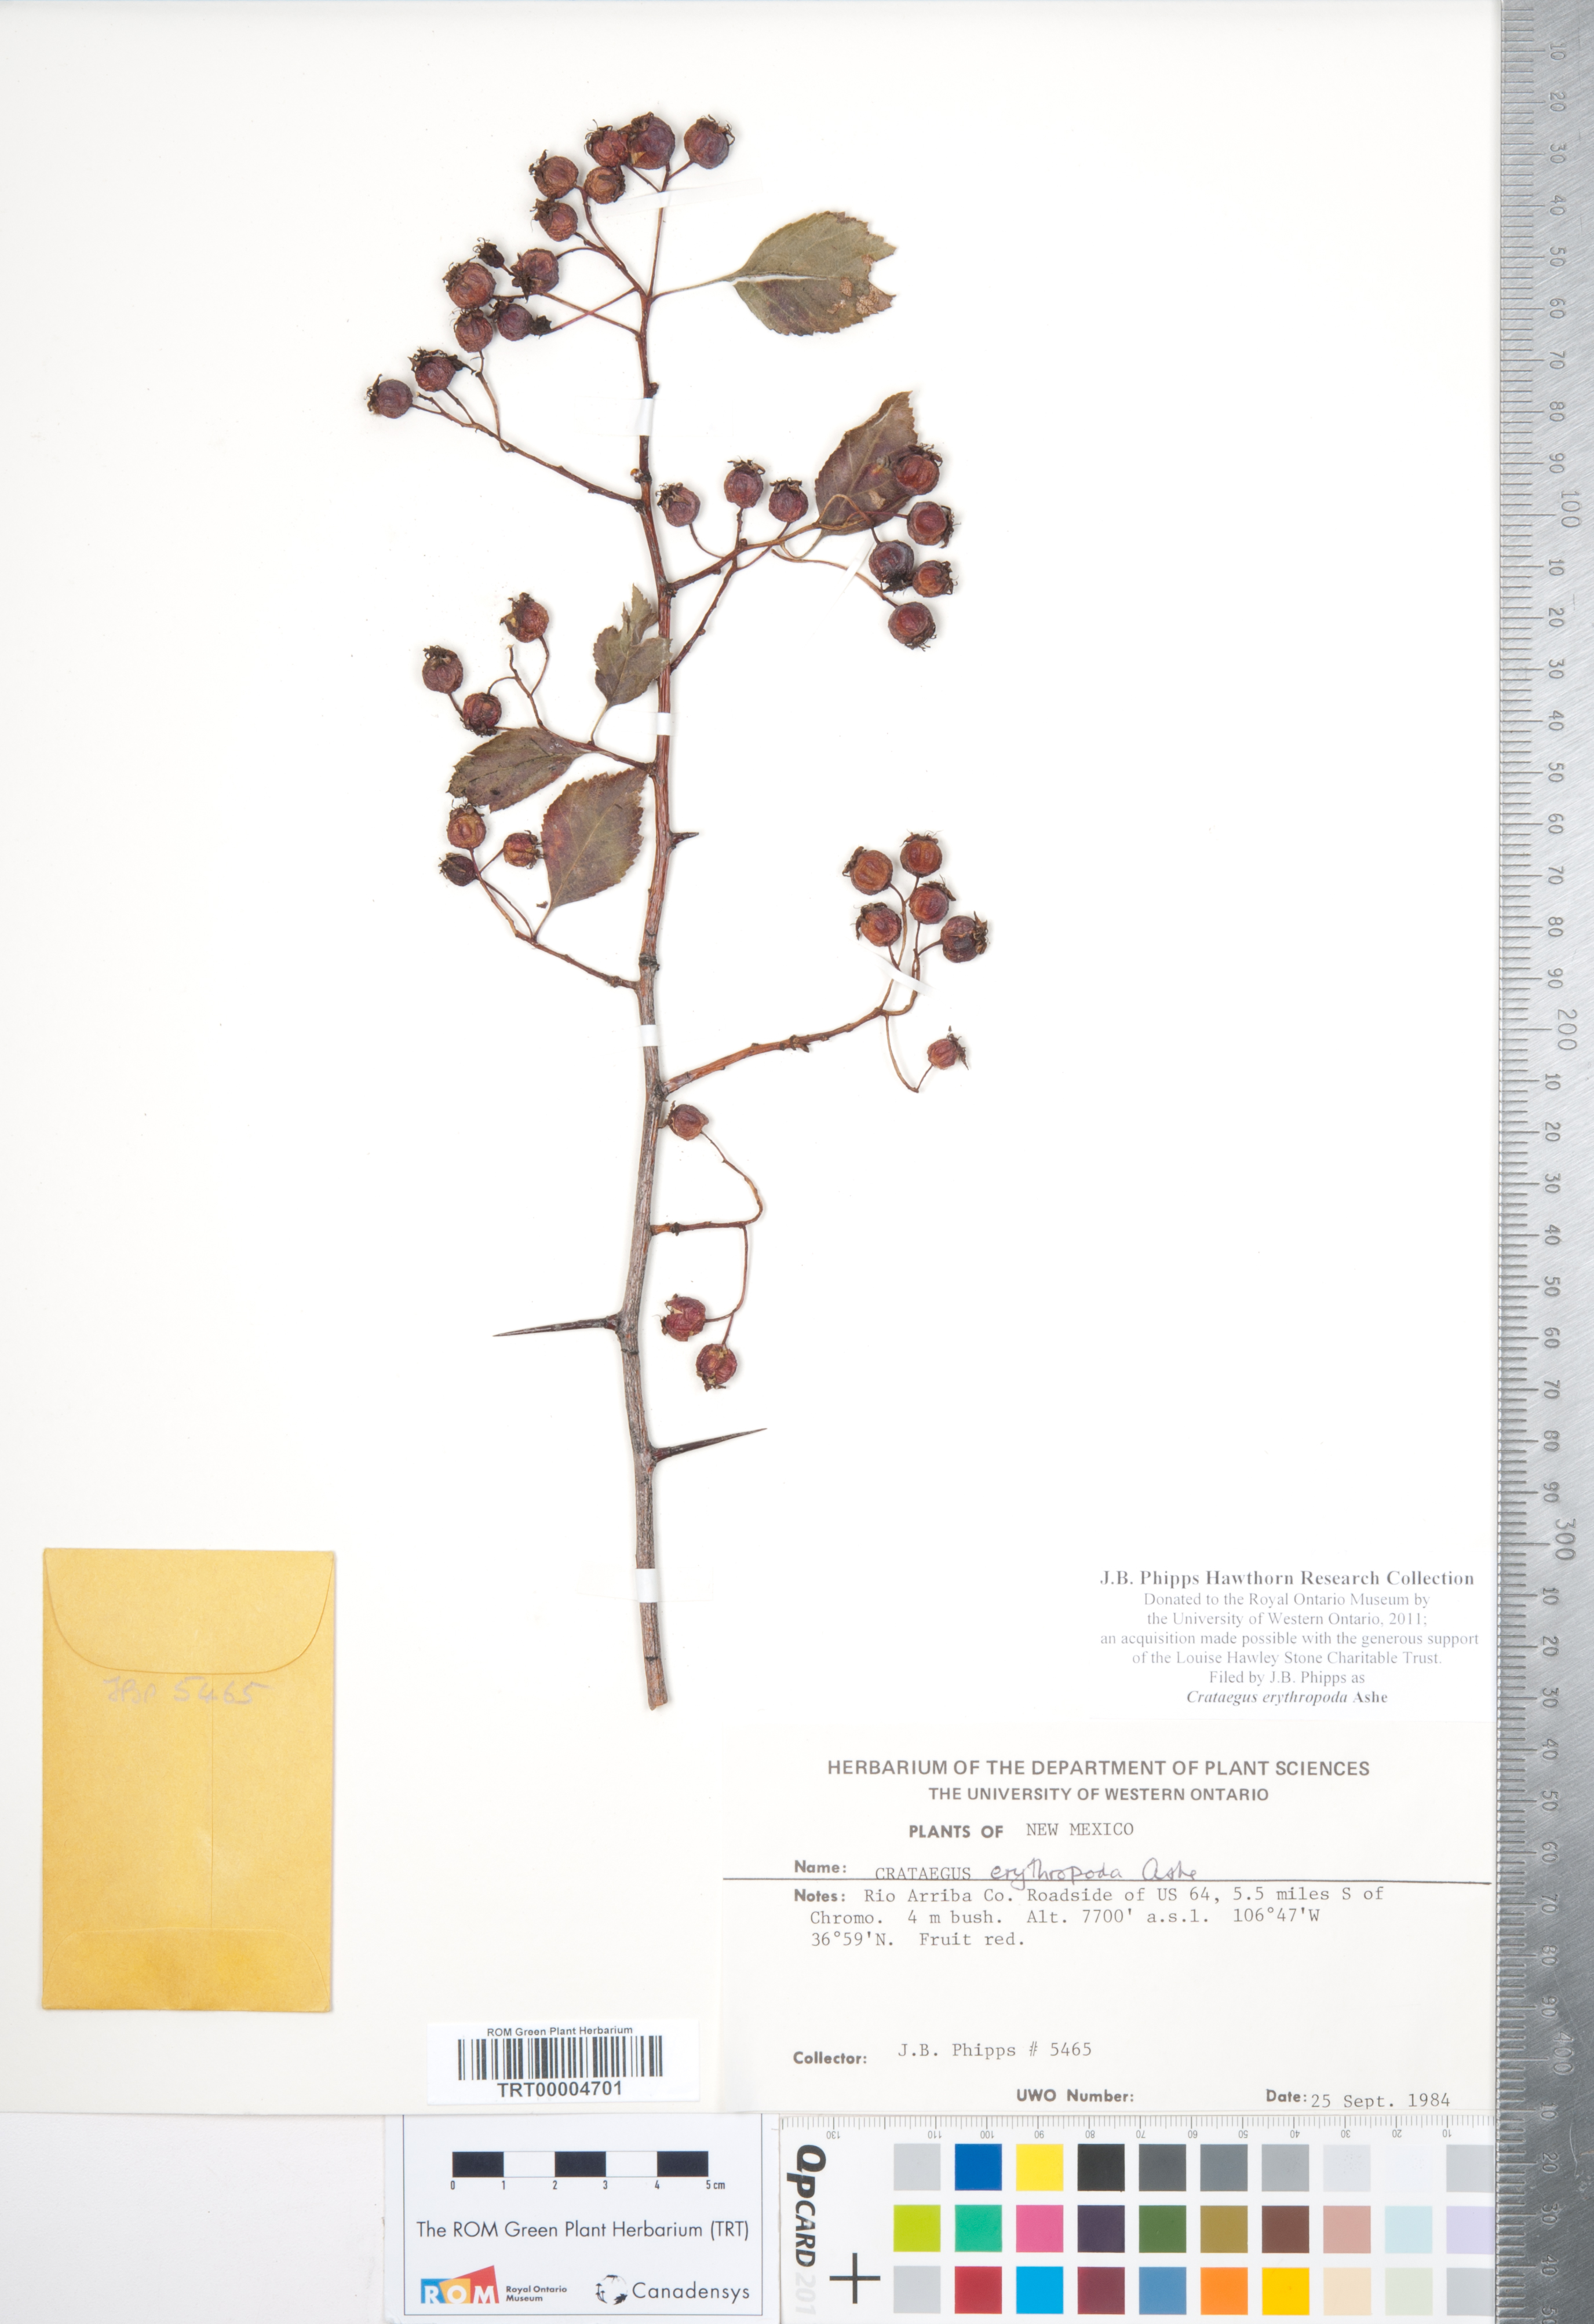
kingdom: Plantae
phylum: Tracheophyta
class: Magnoliopsida
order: Rosales
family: Rosaceae
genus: Crataegus
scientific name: Crataegus erythropoda
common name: Cerro hawthorn
